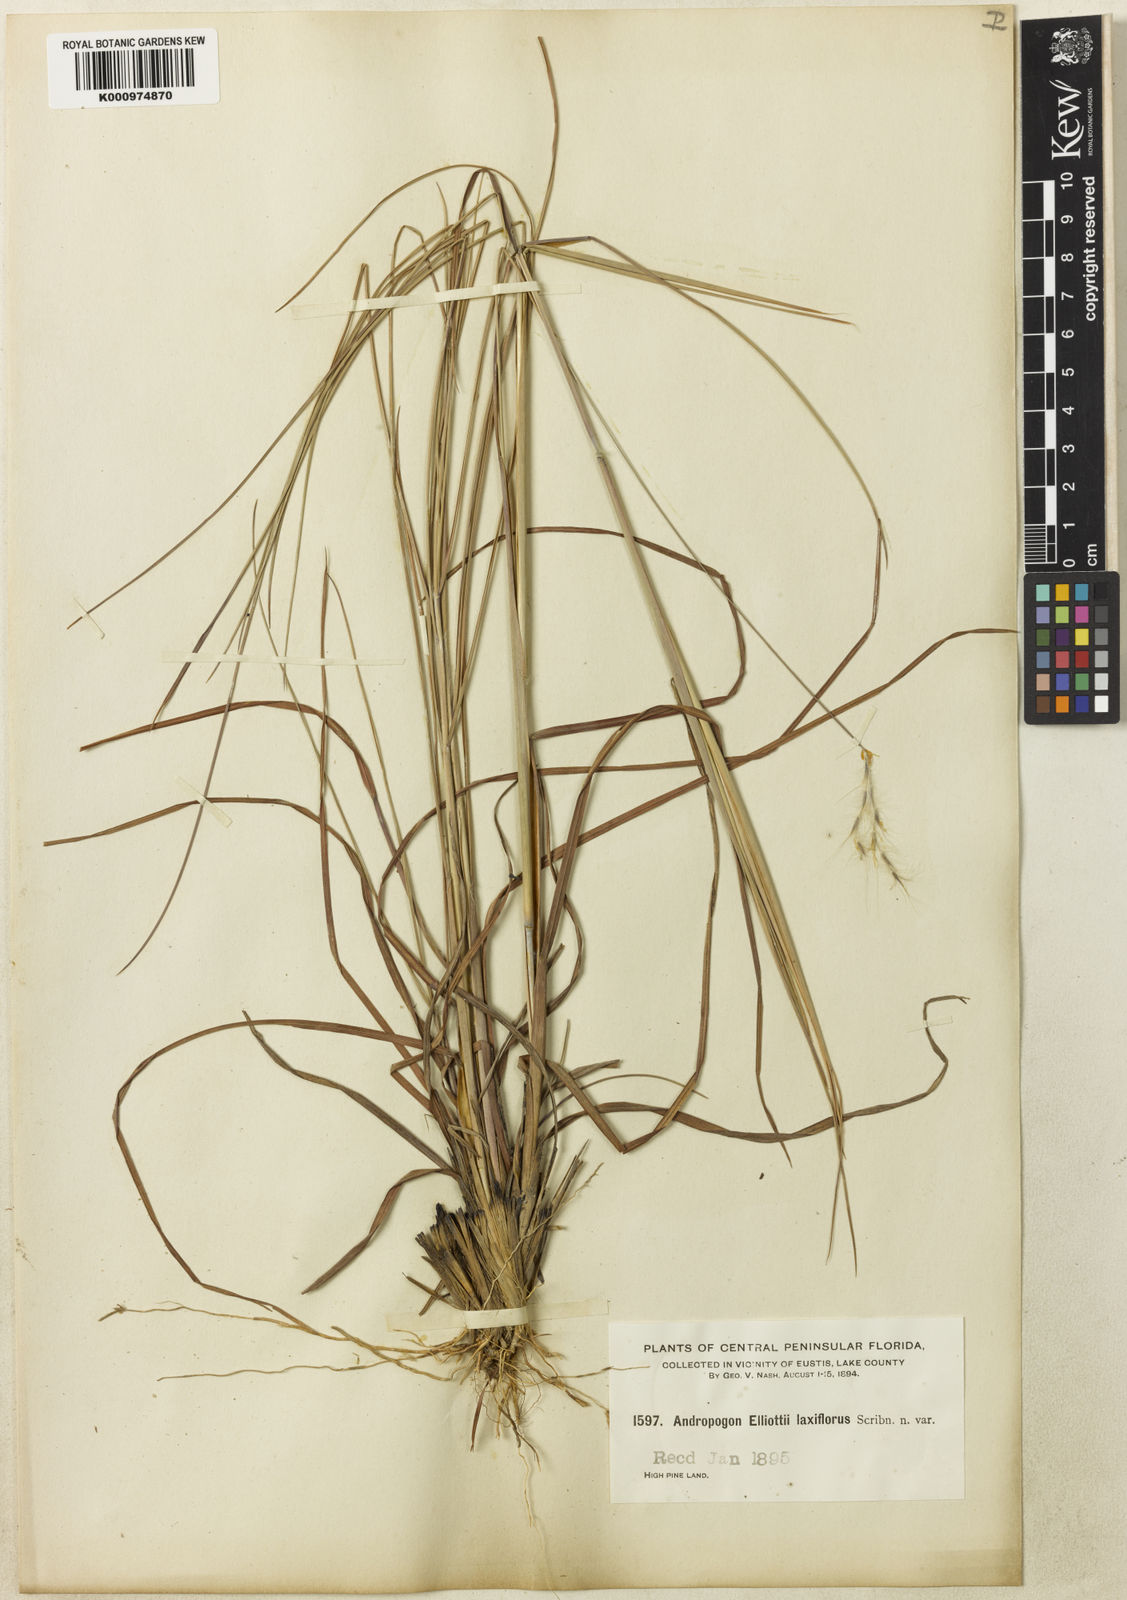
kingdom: Plantae
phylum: Tracheophyta
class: Liliopsida
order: Poales
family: Poaceae
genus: Andropogon
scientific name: Andropogon gyrans
